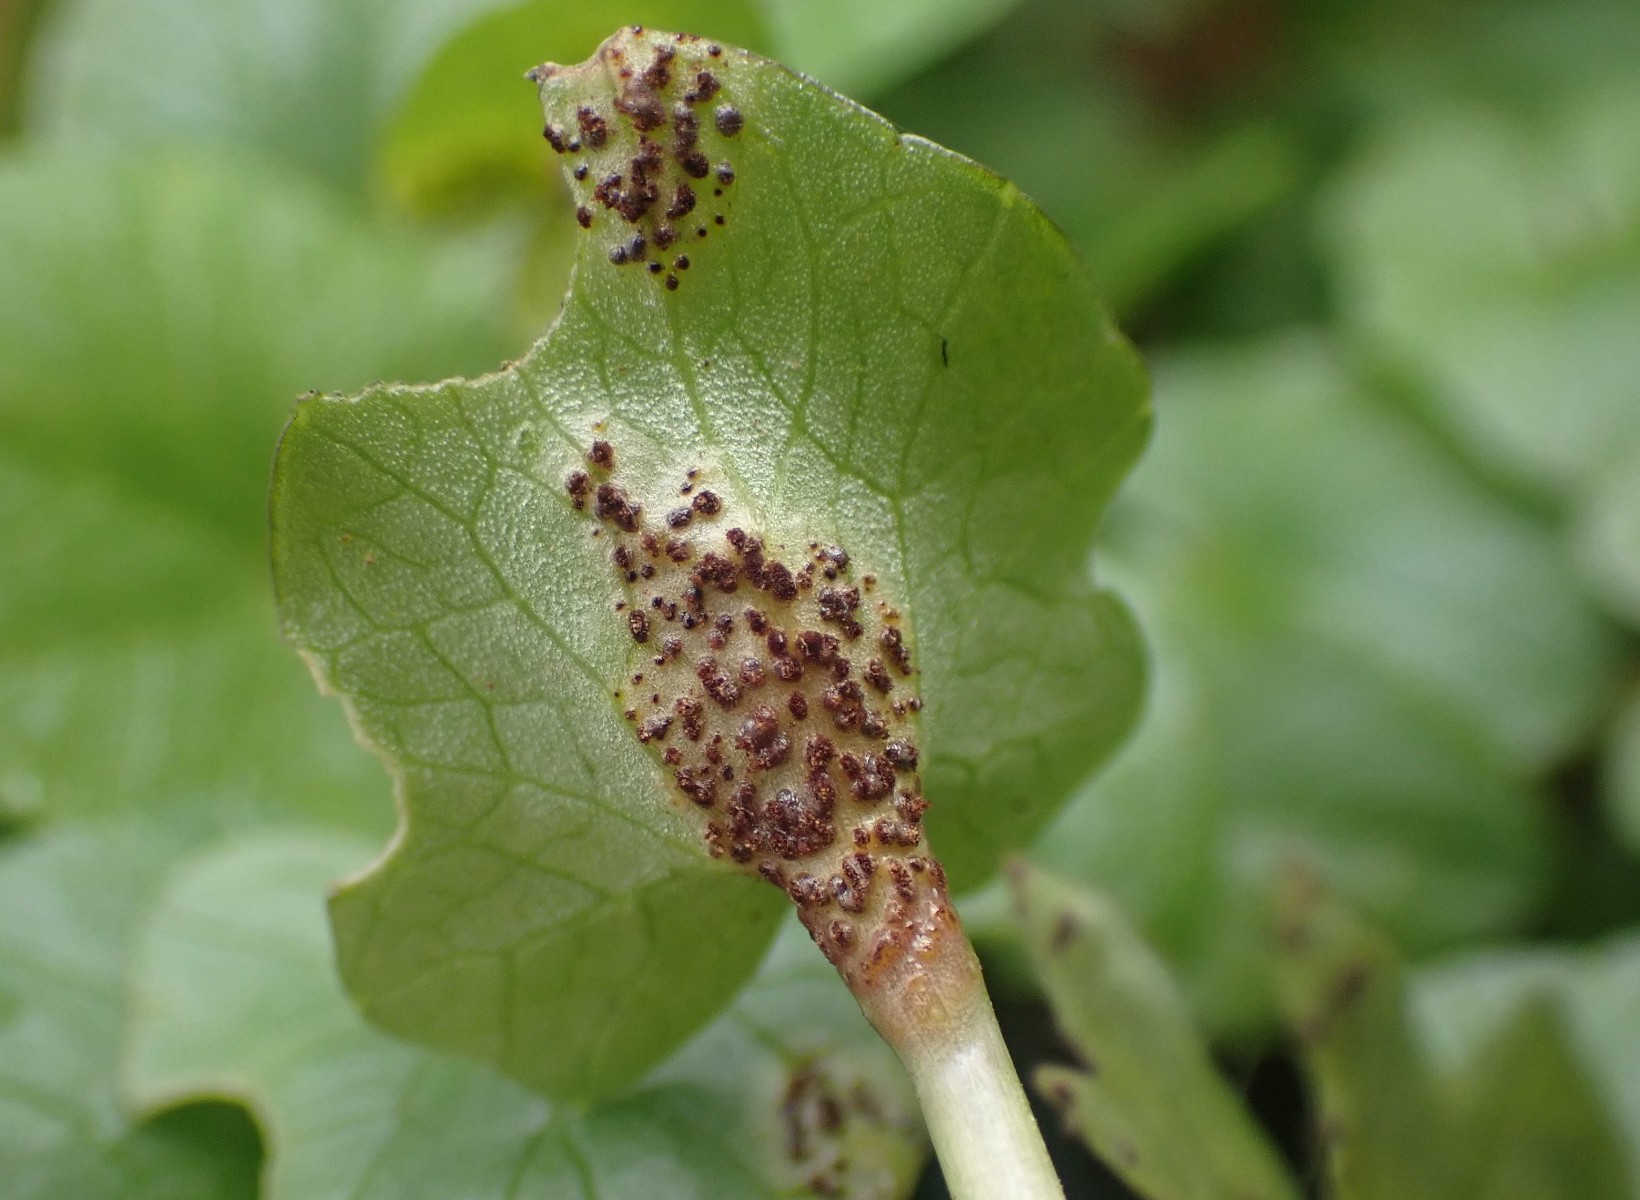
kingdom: Fungi
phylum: Basidiomycota
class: Pucciniomycetes
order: Pucciniales
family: Pucciniaceae
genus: Uromyces
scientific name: Uromyces ficariae
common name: vorterod-encellerust
